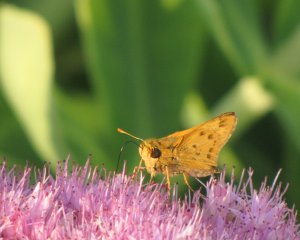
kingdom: Animalia
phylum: Arthropoda
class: Insecta
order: Lepidoptera
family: Hesperiidae
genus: Hylephila
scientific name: Hylephila phyleus
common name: Fiery Skipper
